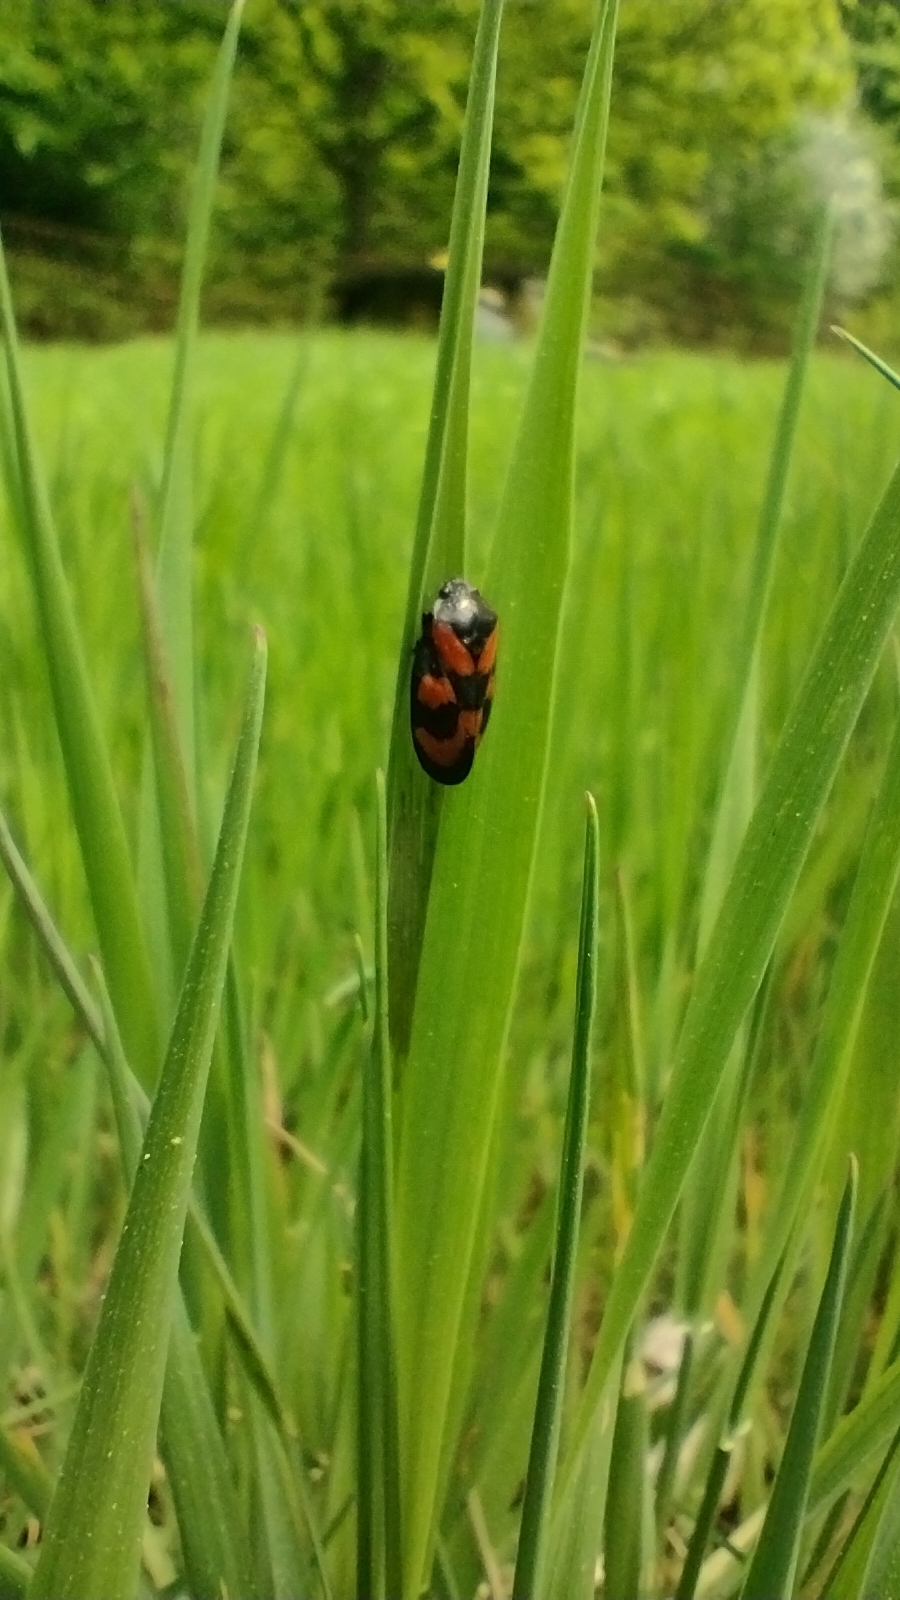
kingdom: Animalia
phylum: Arthropoda
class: Insecta
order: Hemiptera
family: Cercopidae
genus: Cercopis
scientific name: Cercopis vulnerata
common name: Blodcikade
